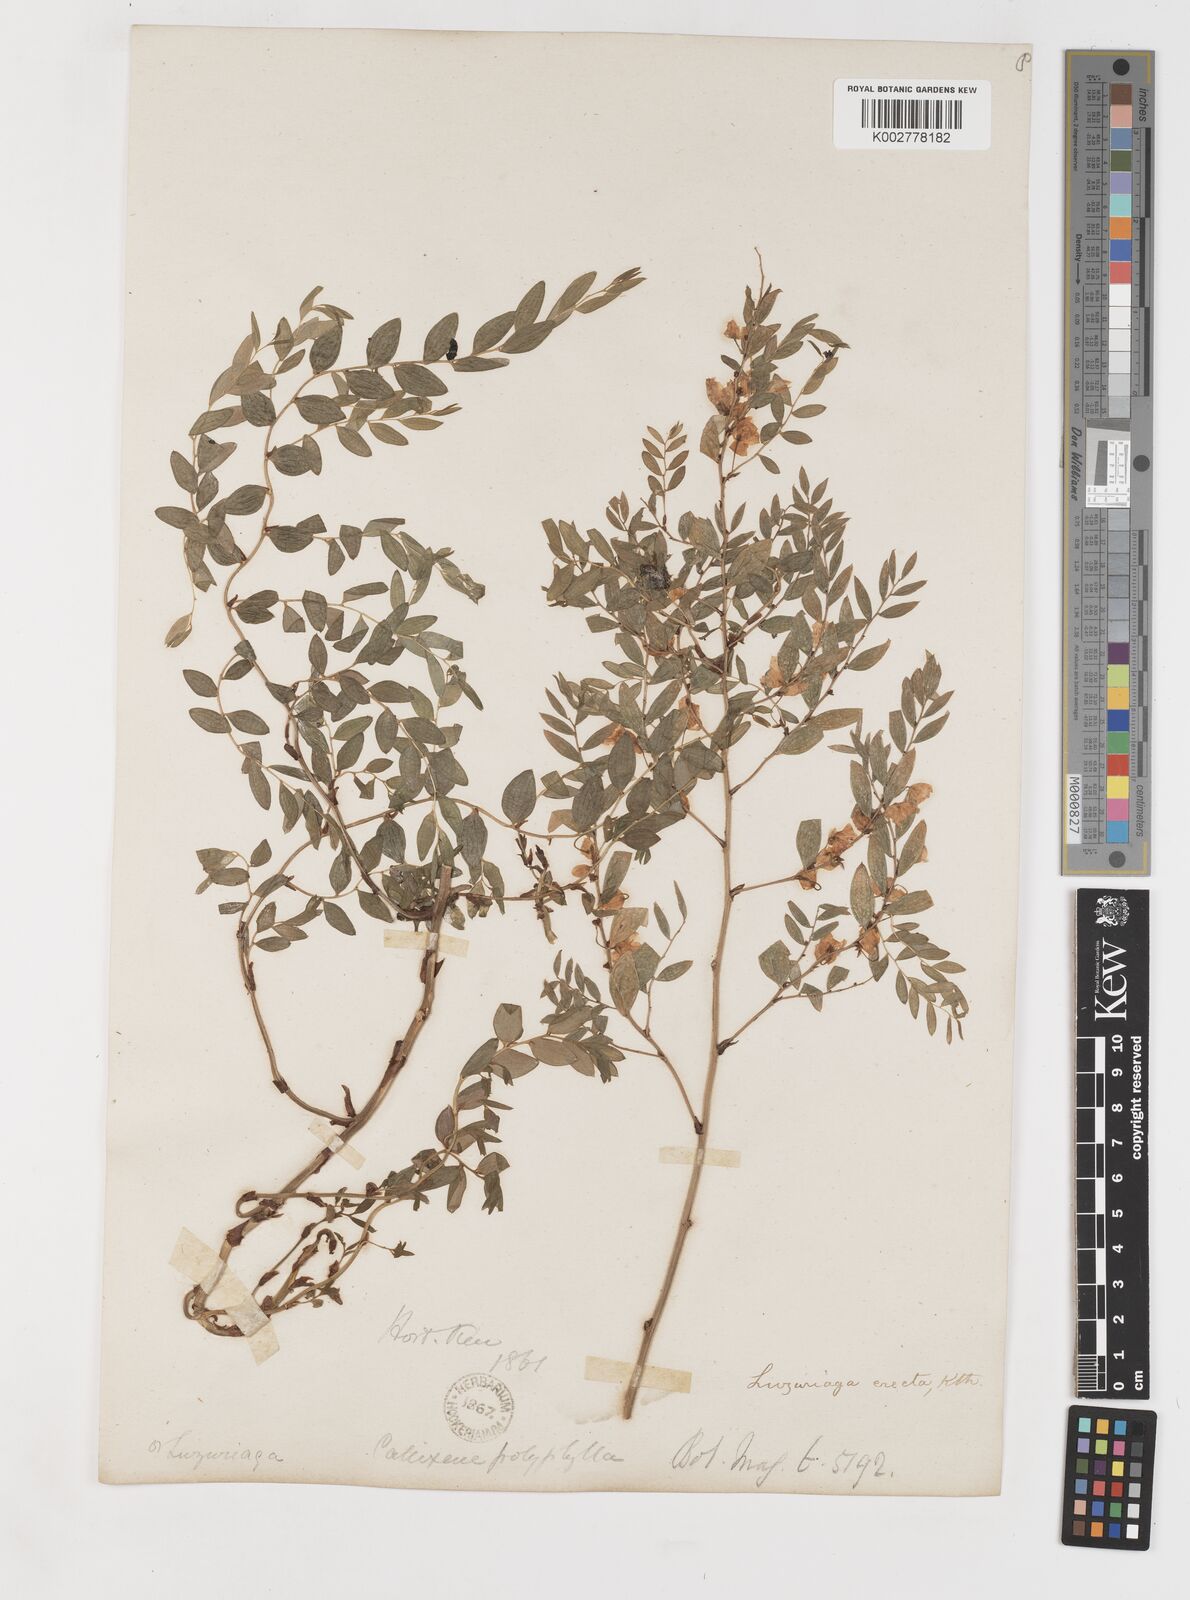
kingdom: Plantae
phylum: Tracheophyta
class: Liliopsida
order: Liliales
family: Alstroemeriaceae
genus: Luzuriaga
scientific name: Luzuriaga polyphylla
